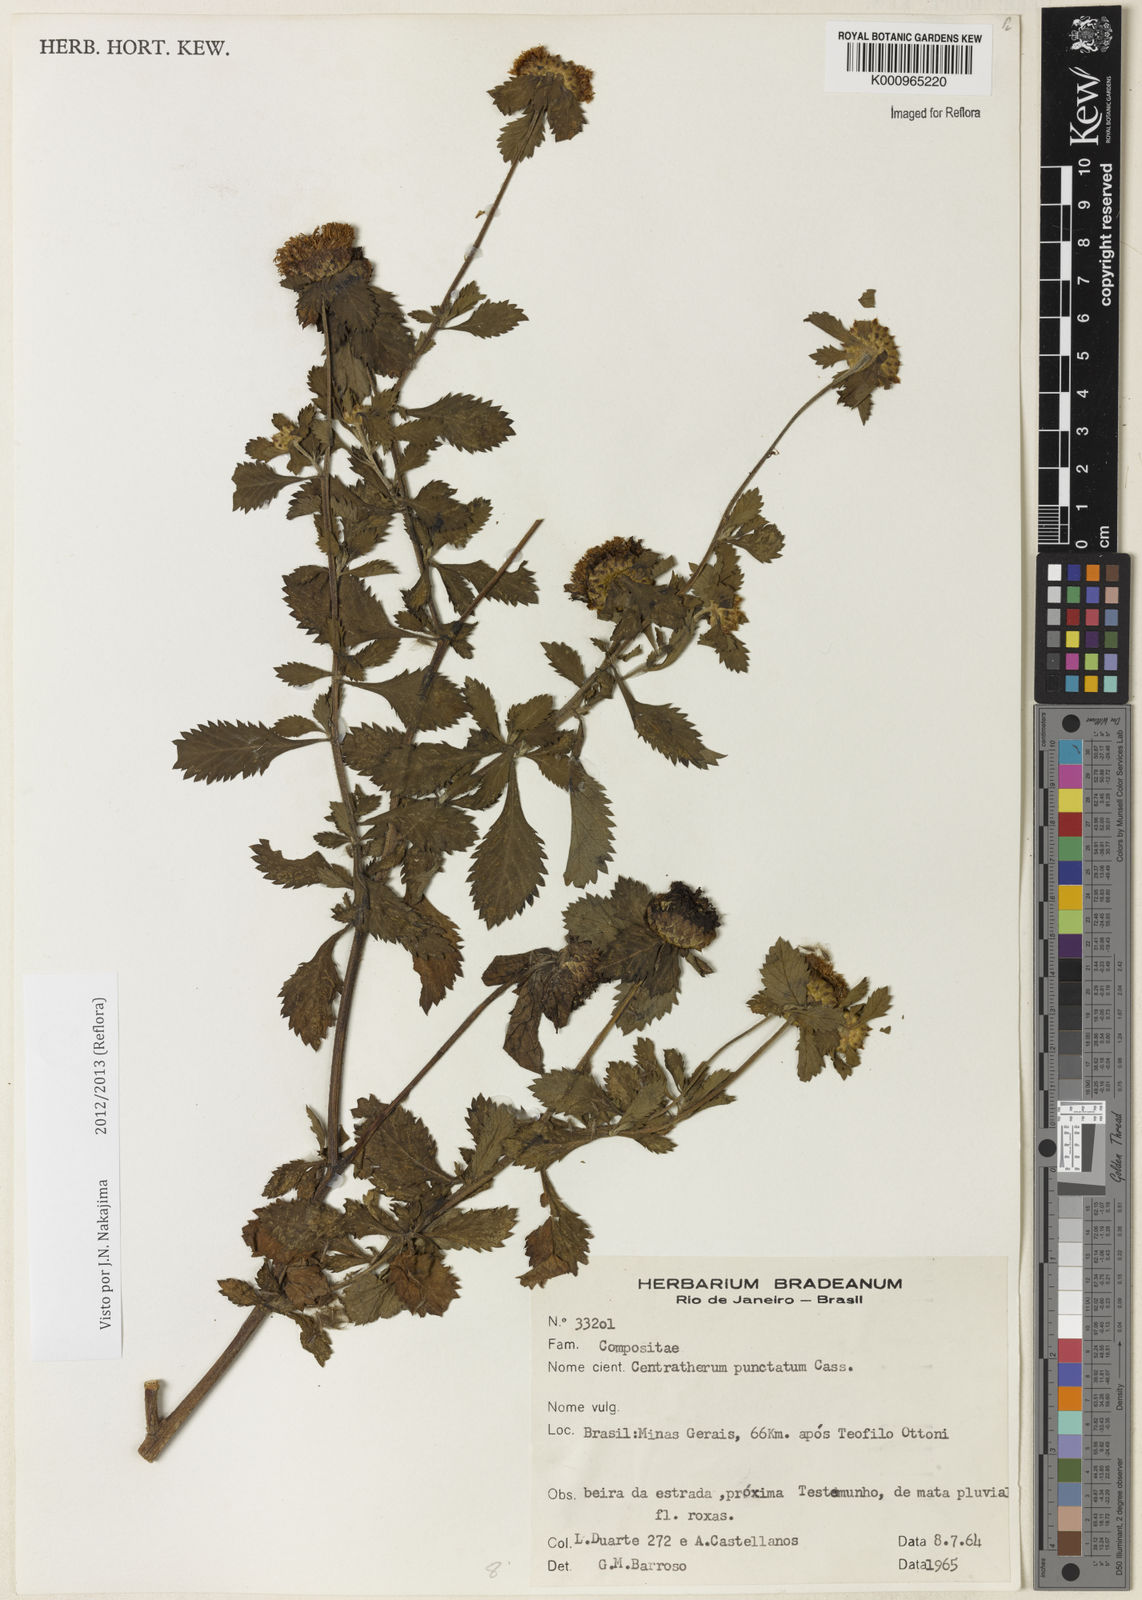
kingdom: Plantae
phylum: Tracheophyta
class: Magnoliopsida
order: Asterales
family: Asteraceae
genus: Centratherum
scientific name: Centratherum punctatum
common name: Larkdaisy
